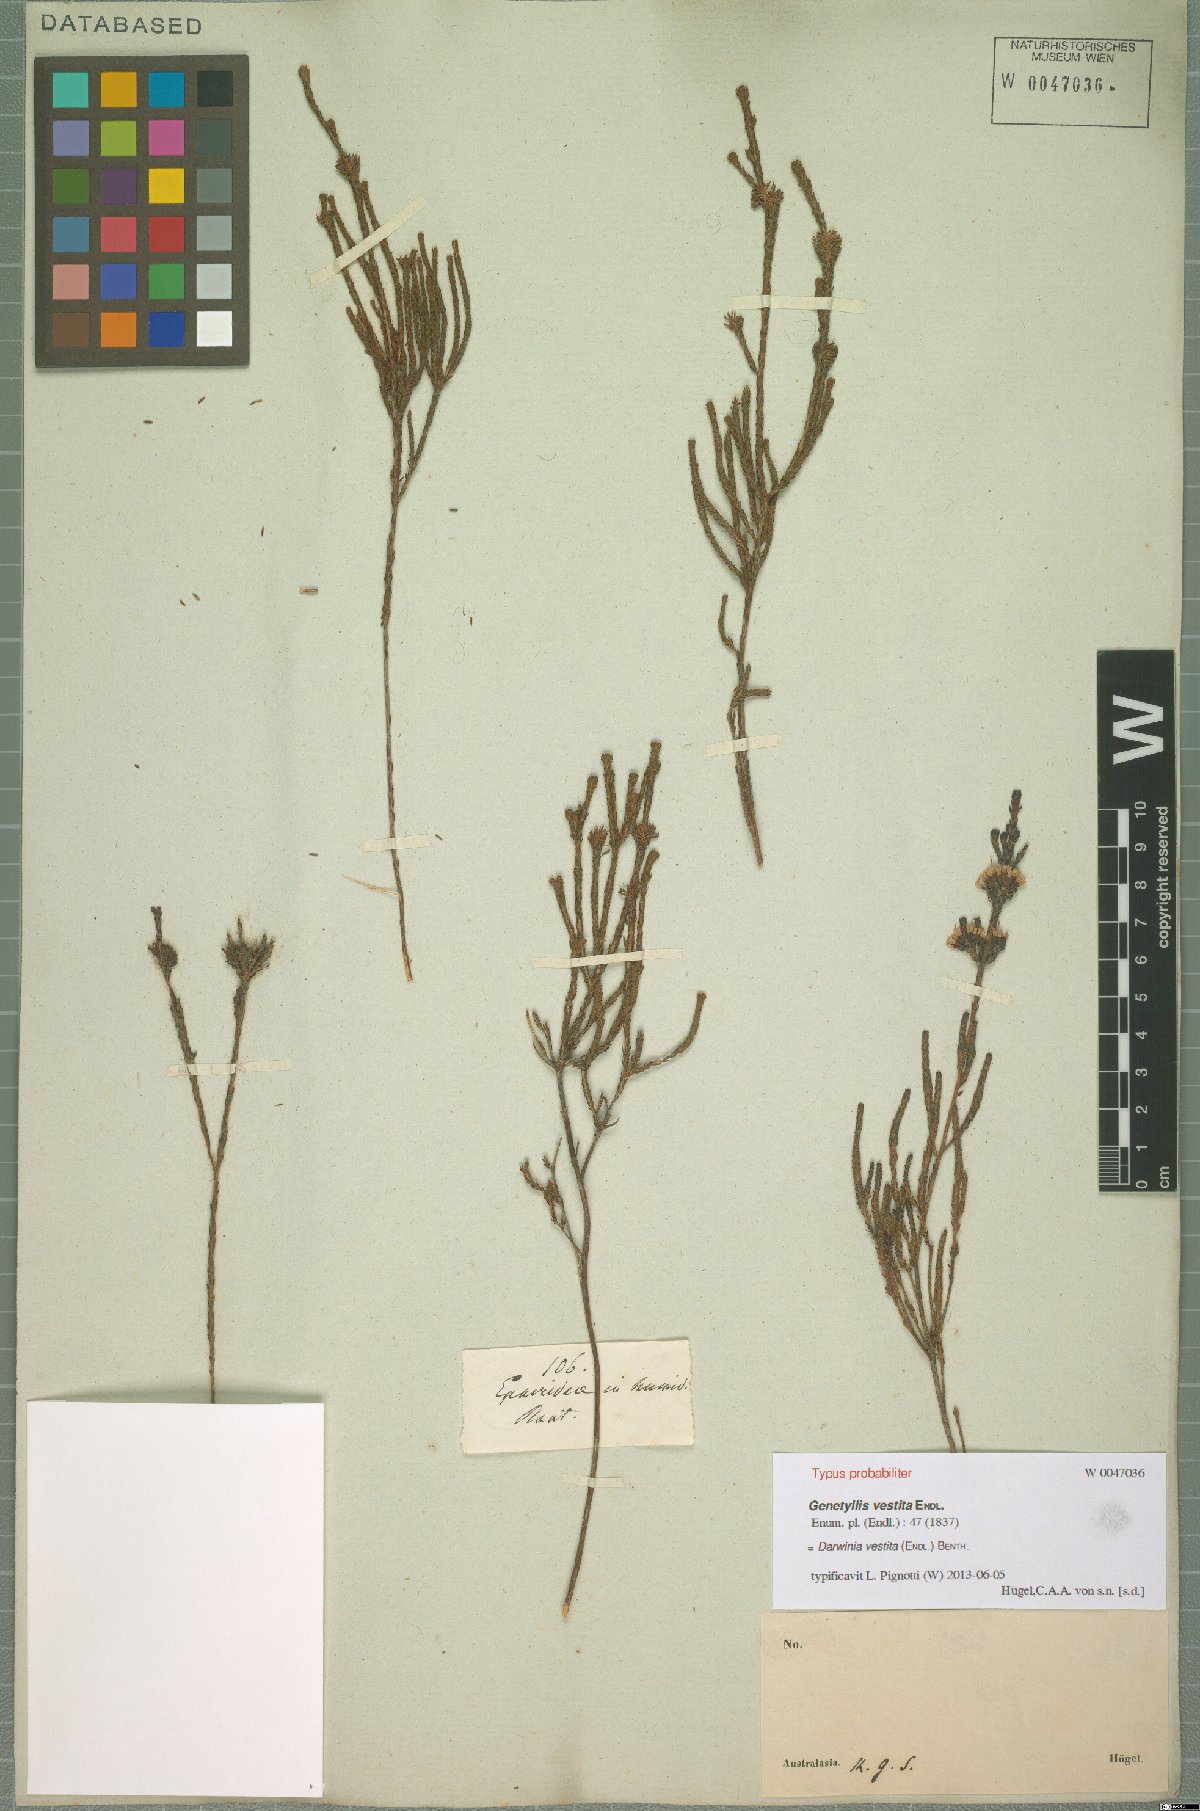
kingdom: Plantae
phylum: Tracheophyta
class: Magnoliopsida
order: Myrtales
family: Myrtaceae
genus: Darwinia
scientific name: Darwinia vestita
